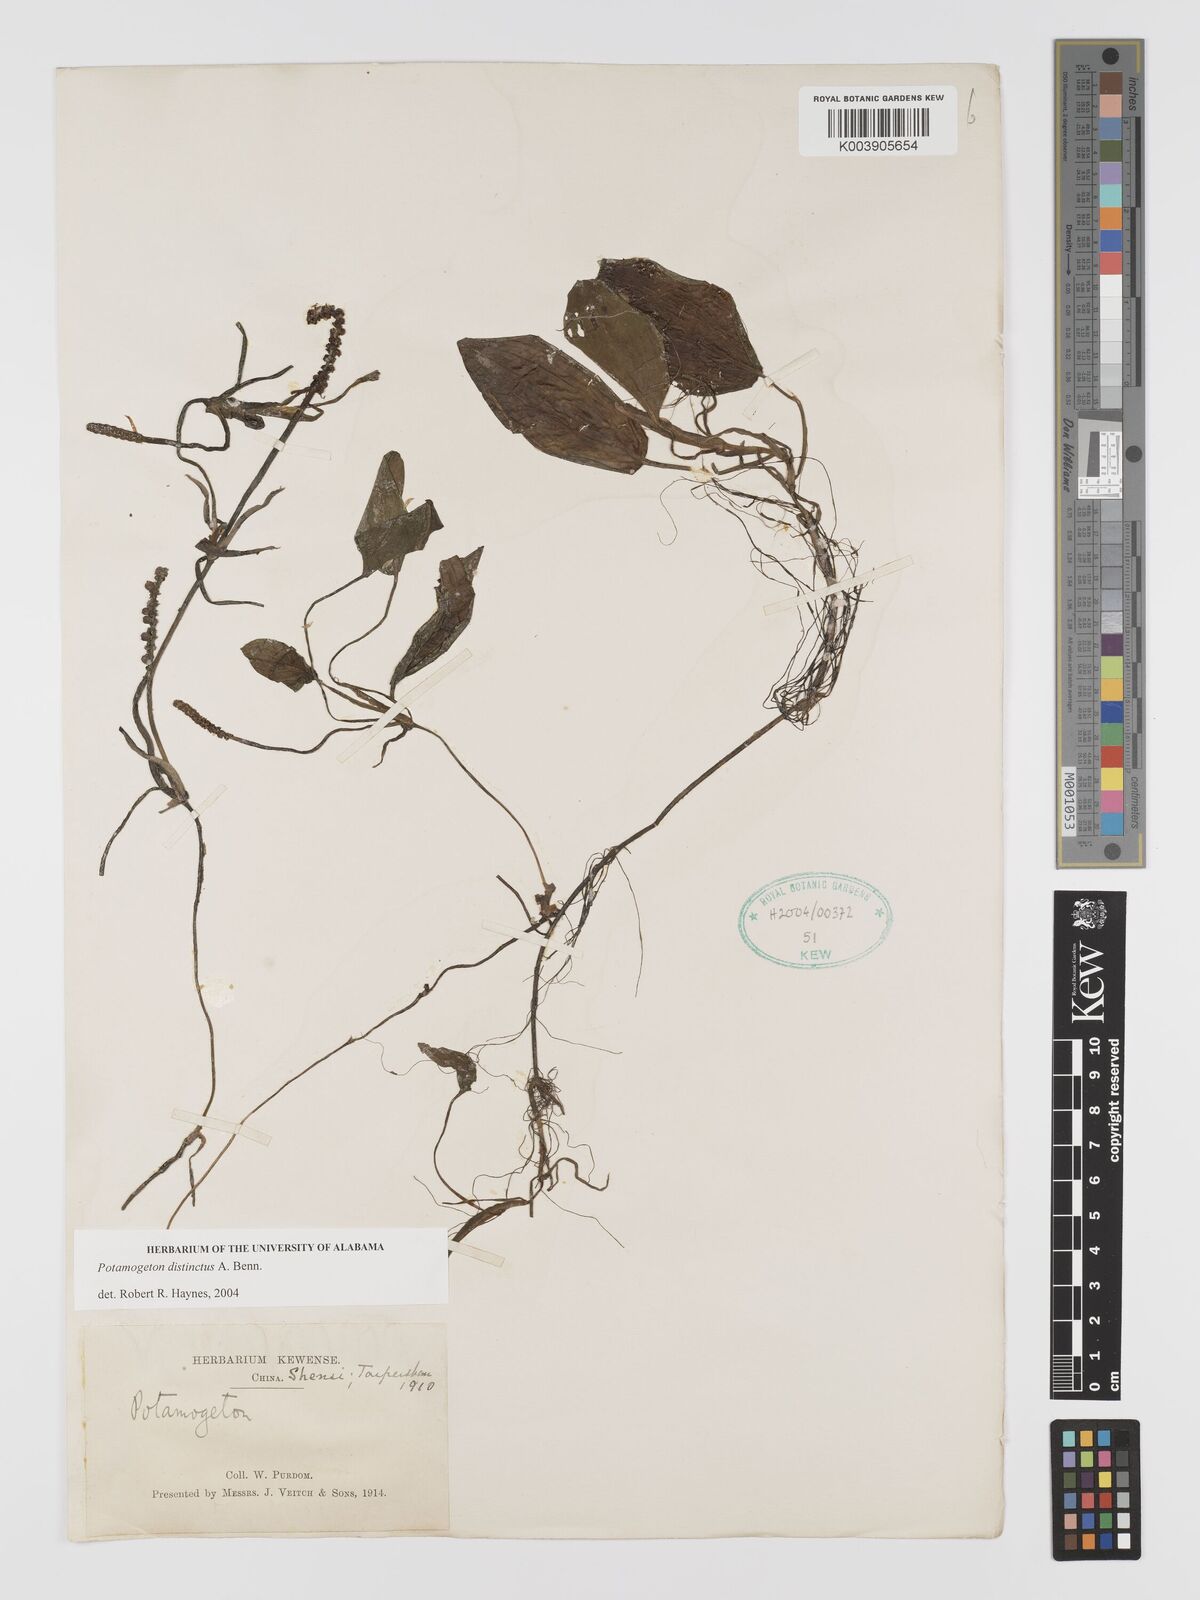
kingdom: Plantae
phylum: Tracheophyta
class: Liliopsida
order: Alismatales
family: Potamogetonaceae
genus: Potamogeton
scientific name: Potamogeton distinctus
